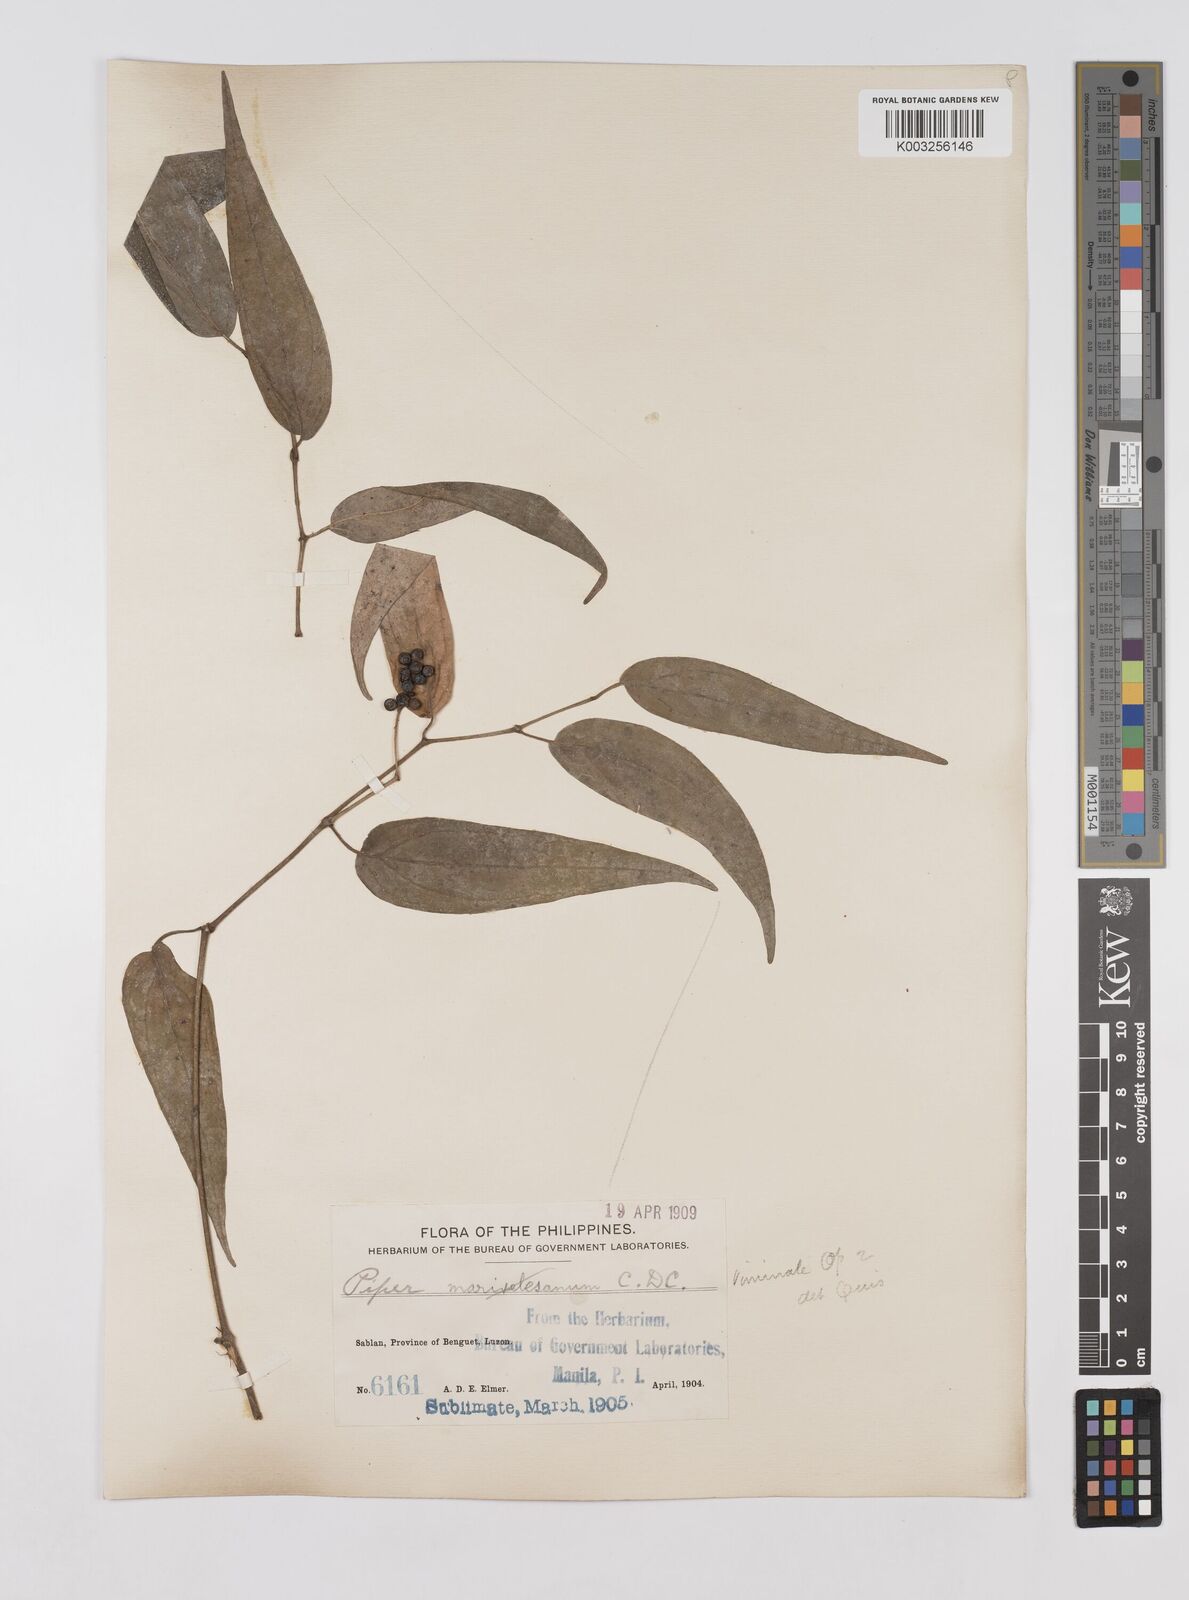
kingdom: Plantae
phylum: Tracheophyta
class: Magnoliopsida
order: Piperales
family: Piperaceae
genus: Piper
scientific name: Piper lanatum
